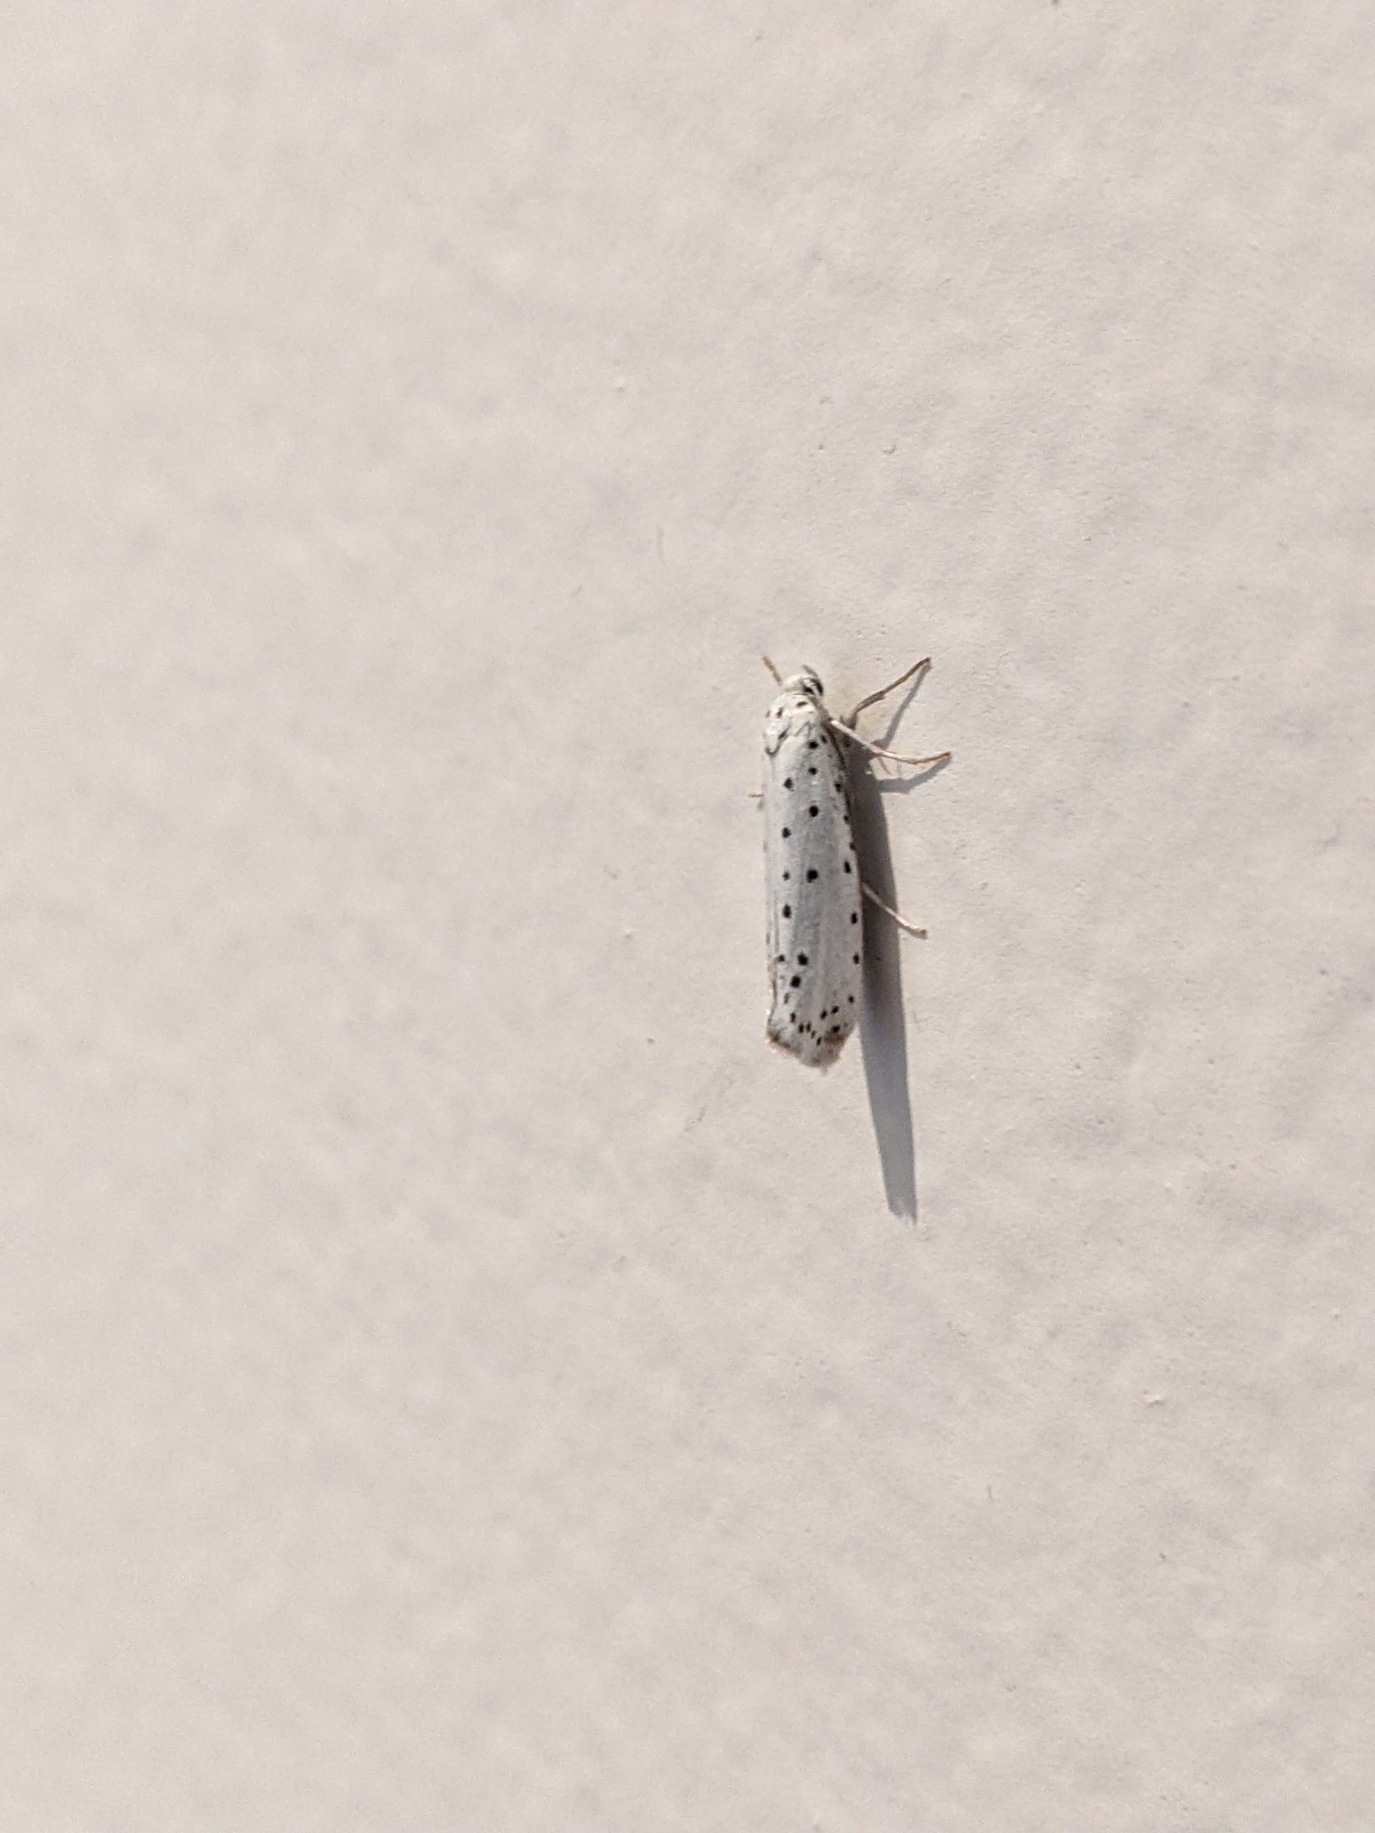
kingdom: Animalia
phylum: Arthropoda
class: Insecta
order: Lepidoptera
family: Yponomeutidae
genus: Yponomeuta
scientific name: Yponomeuta
